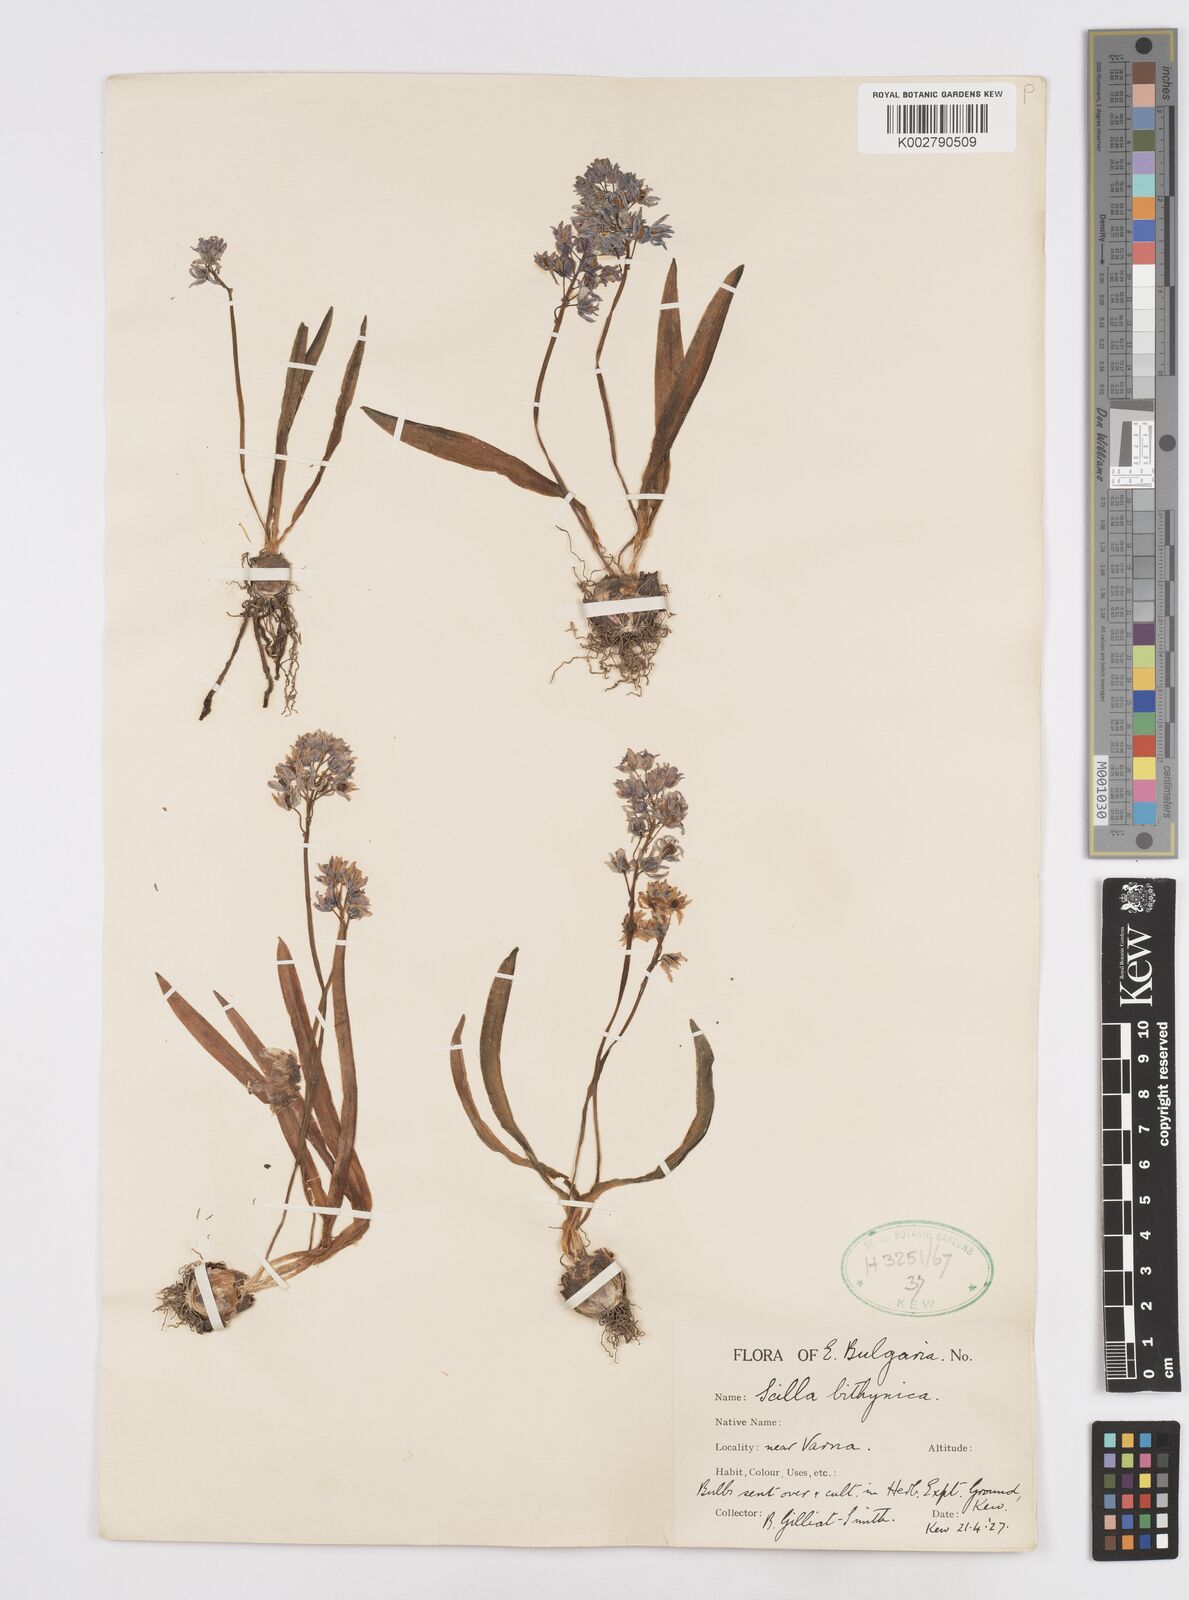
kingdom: Plantae
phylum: Tracheophyta
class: Liliopsida
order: Asparagales
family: Asparagaceae
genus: Scilla
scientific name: Scilla bithynica
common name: Turkish squill
